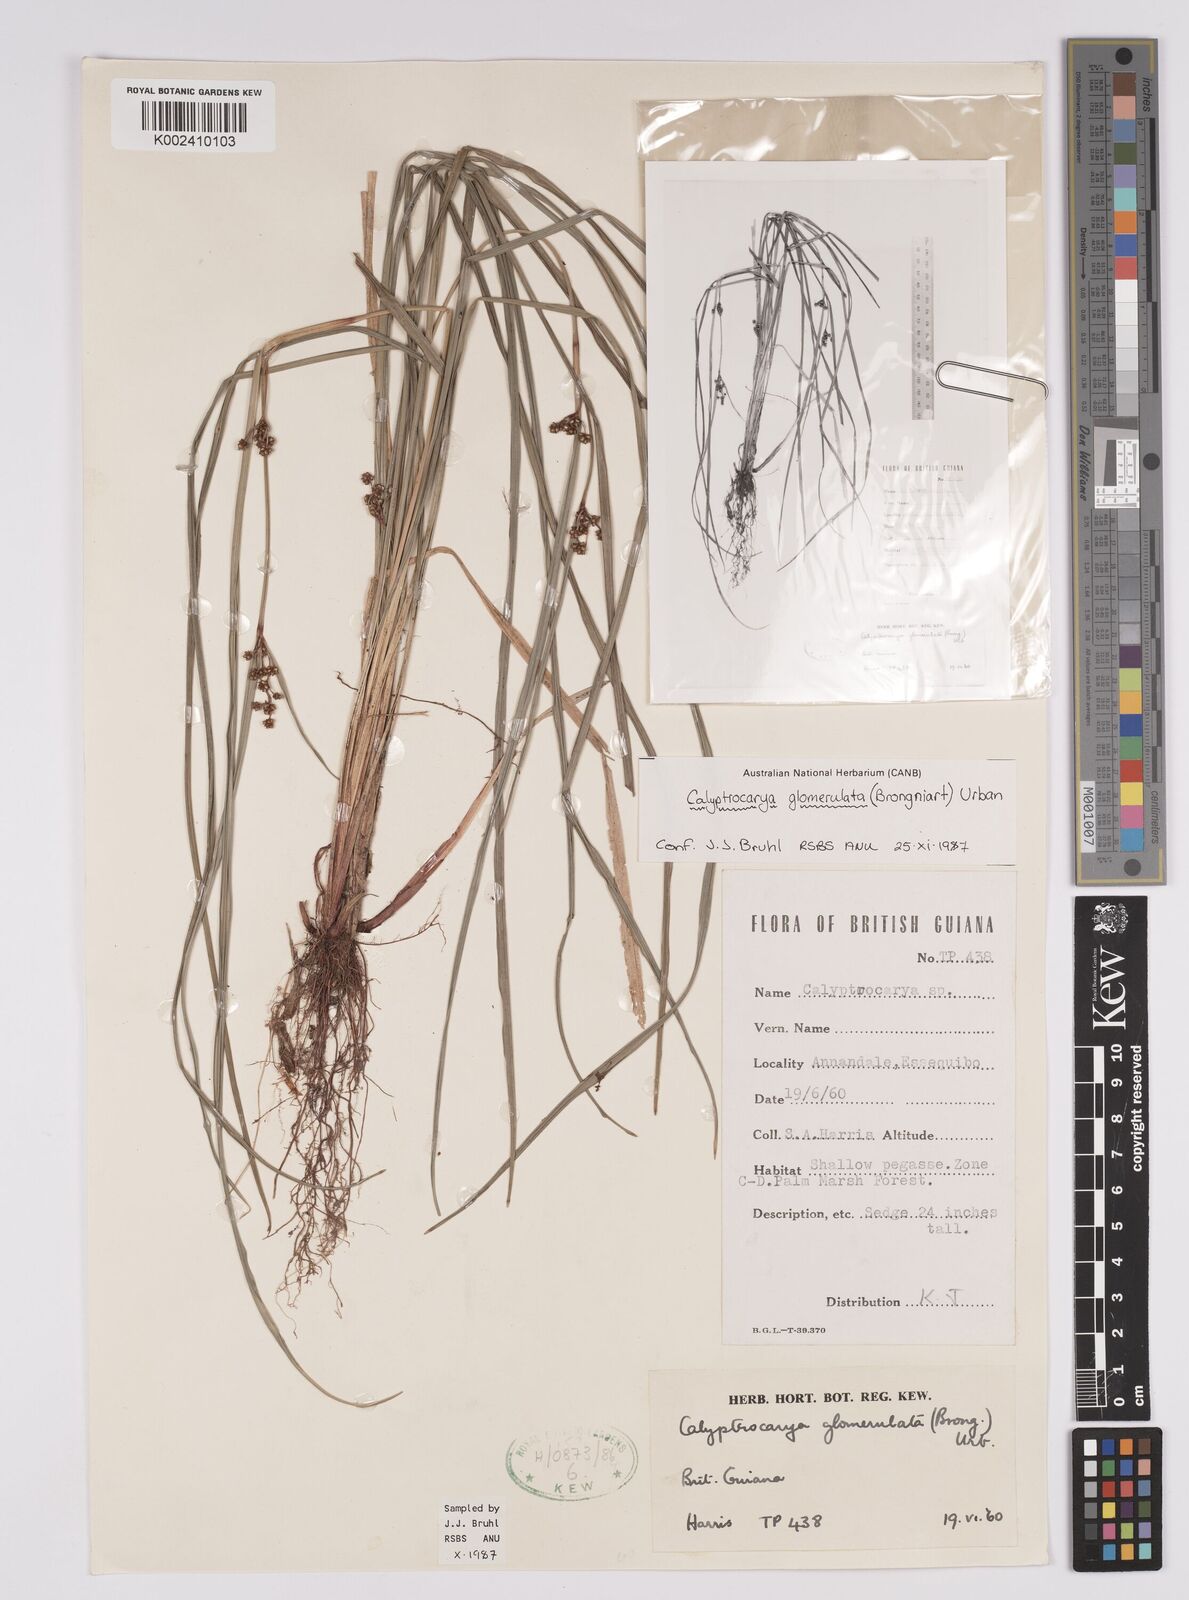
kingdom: Plantae
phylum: Tracheophyta
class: Liliopsida
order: Poales
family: Cyperaceae
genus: Calyptrocarya
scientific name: Calyptrocarya glomerulata
